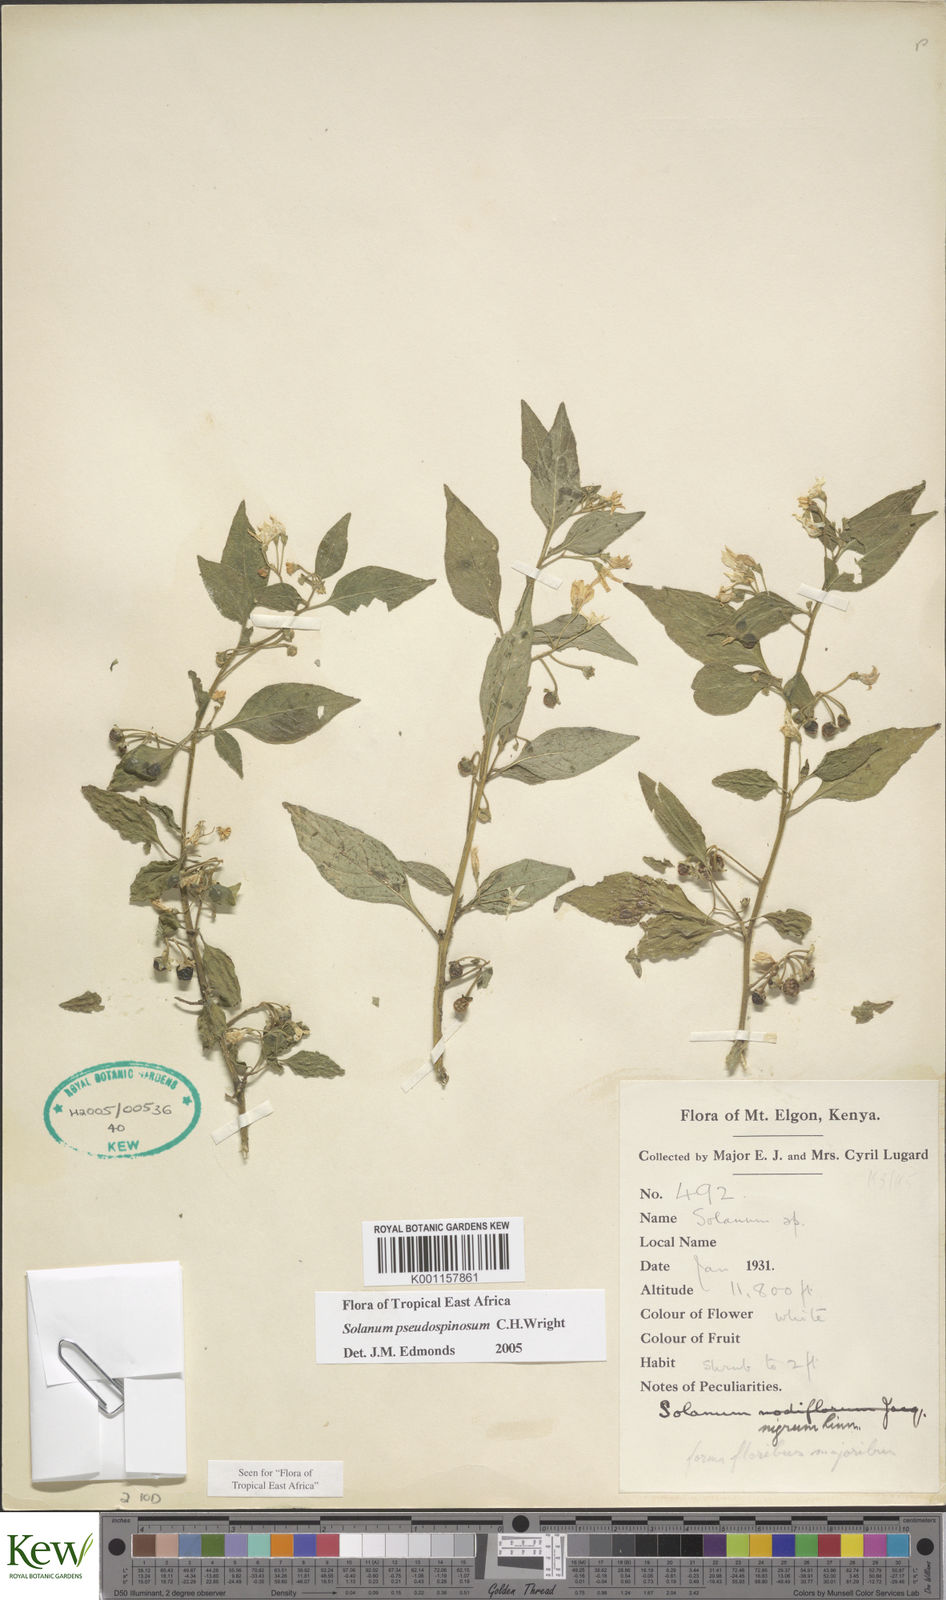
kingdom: Plantae
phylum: Tracheophyta
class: Magnoliopsida
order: Solanales
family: Solanaceae
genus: Solanum
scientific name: Solanum pseudospinosum
